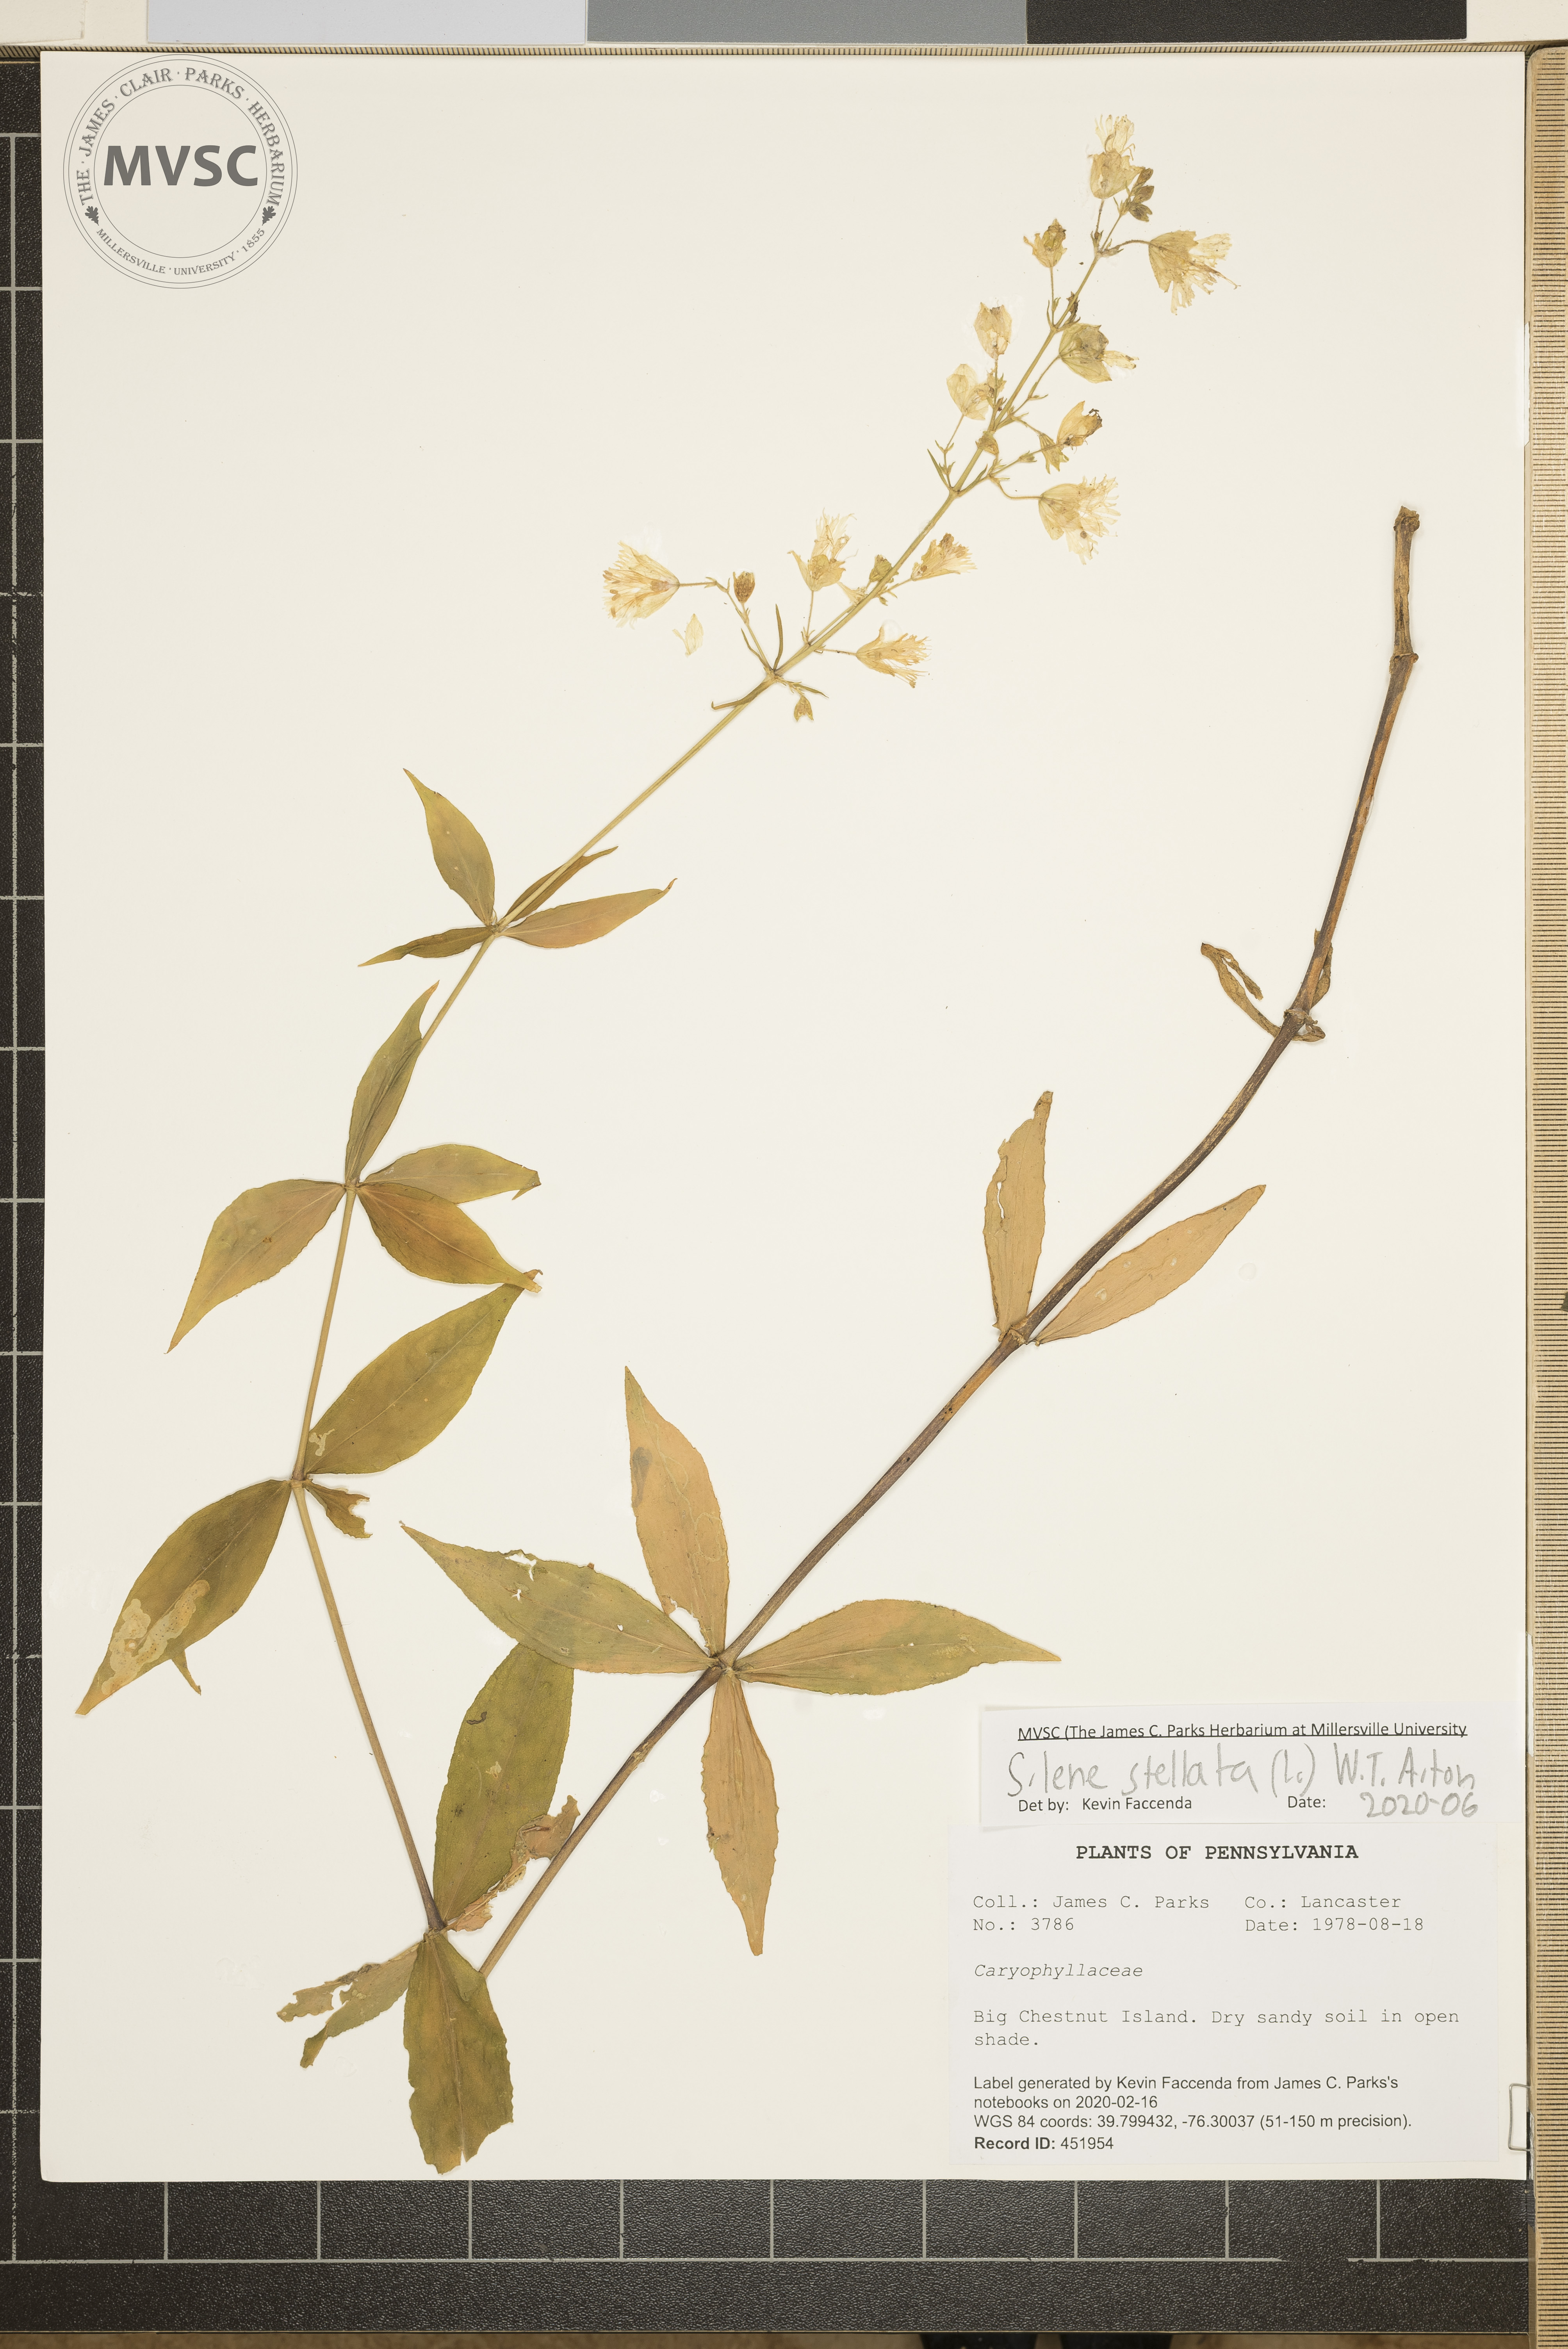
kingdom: Plantae
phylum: Tracheophyta
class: Magnoliopsida
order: Caryophyllales
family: Caryophyllaceae
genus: Silene
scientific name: Silene stellata
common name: Starry campion
